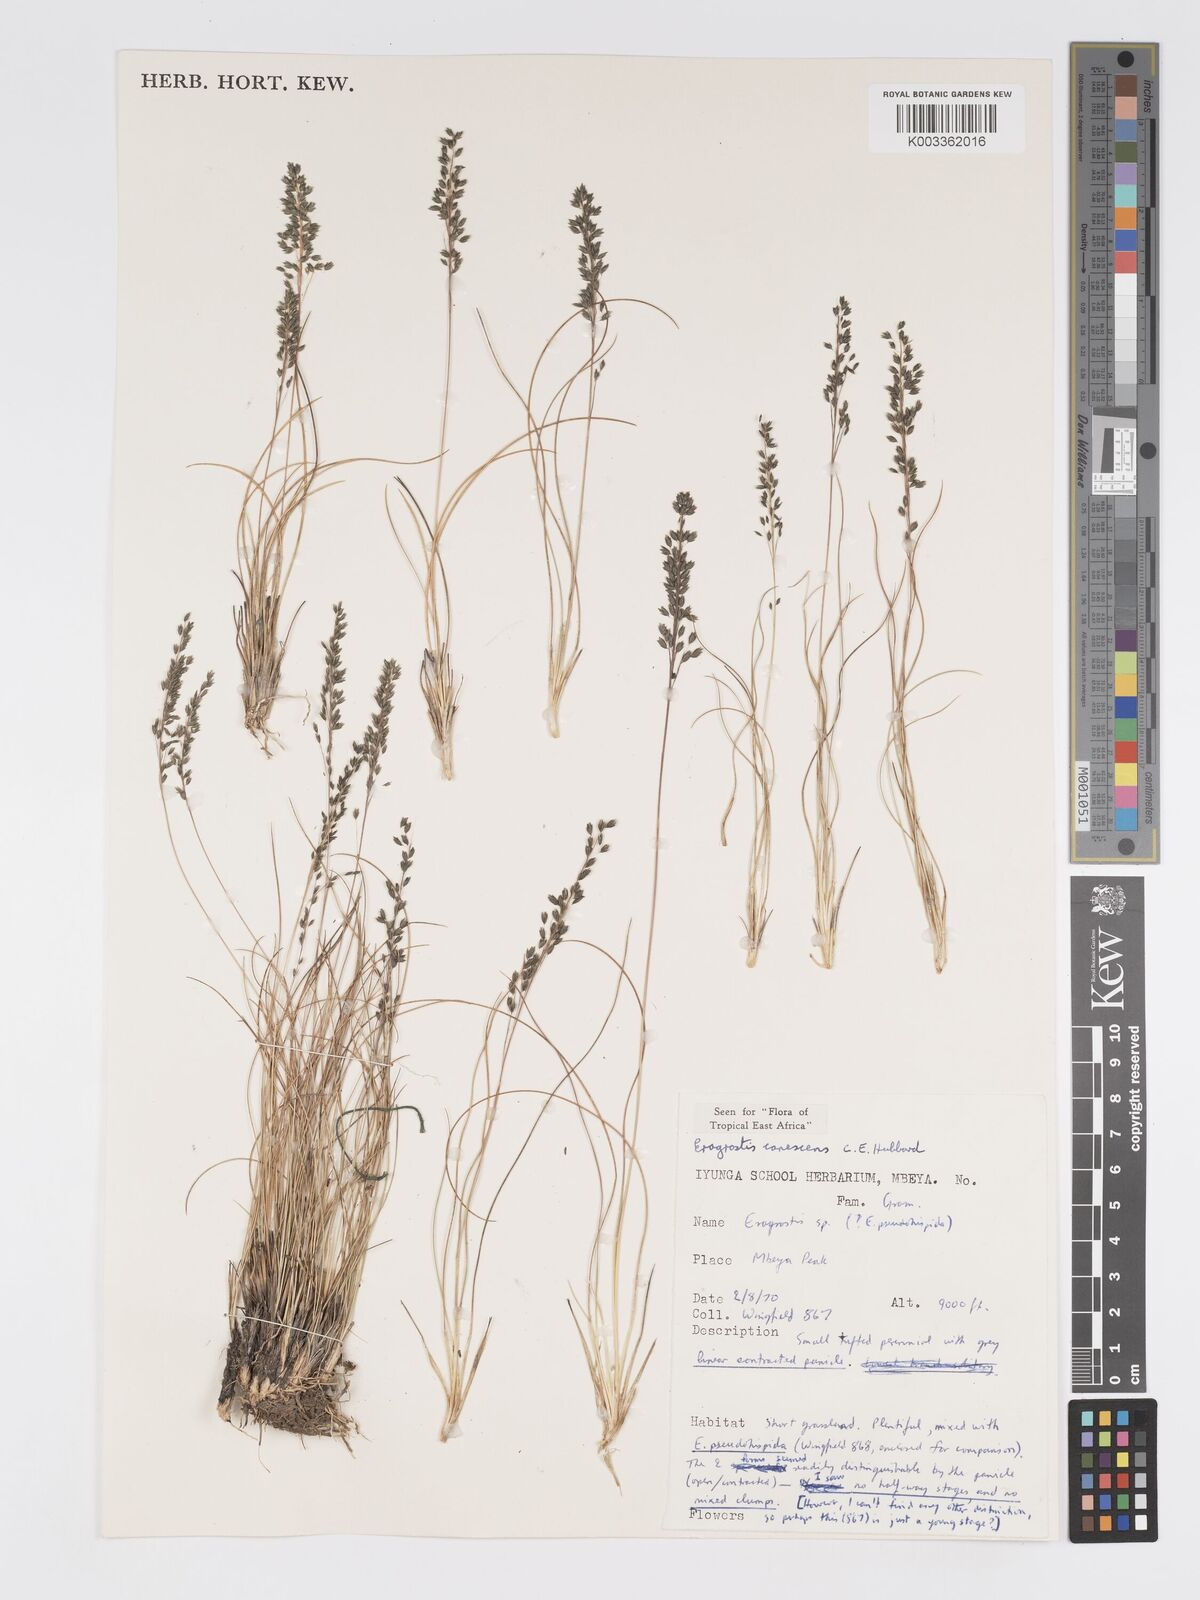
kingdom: Plantae
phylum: Tracheophyta
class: Liliopsida
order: Poales
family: Poaceae
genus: Eragrostis
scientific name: Eragrostis canescens
